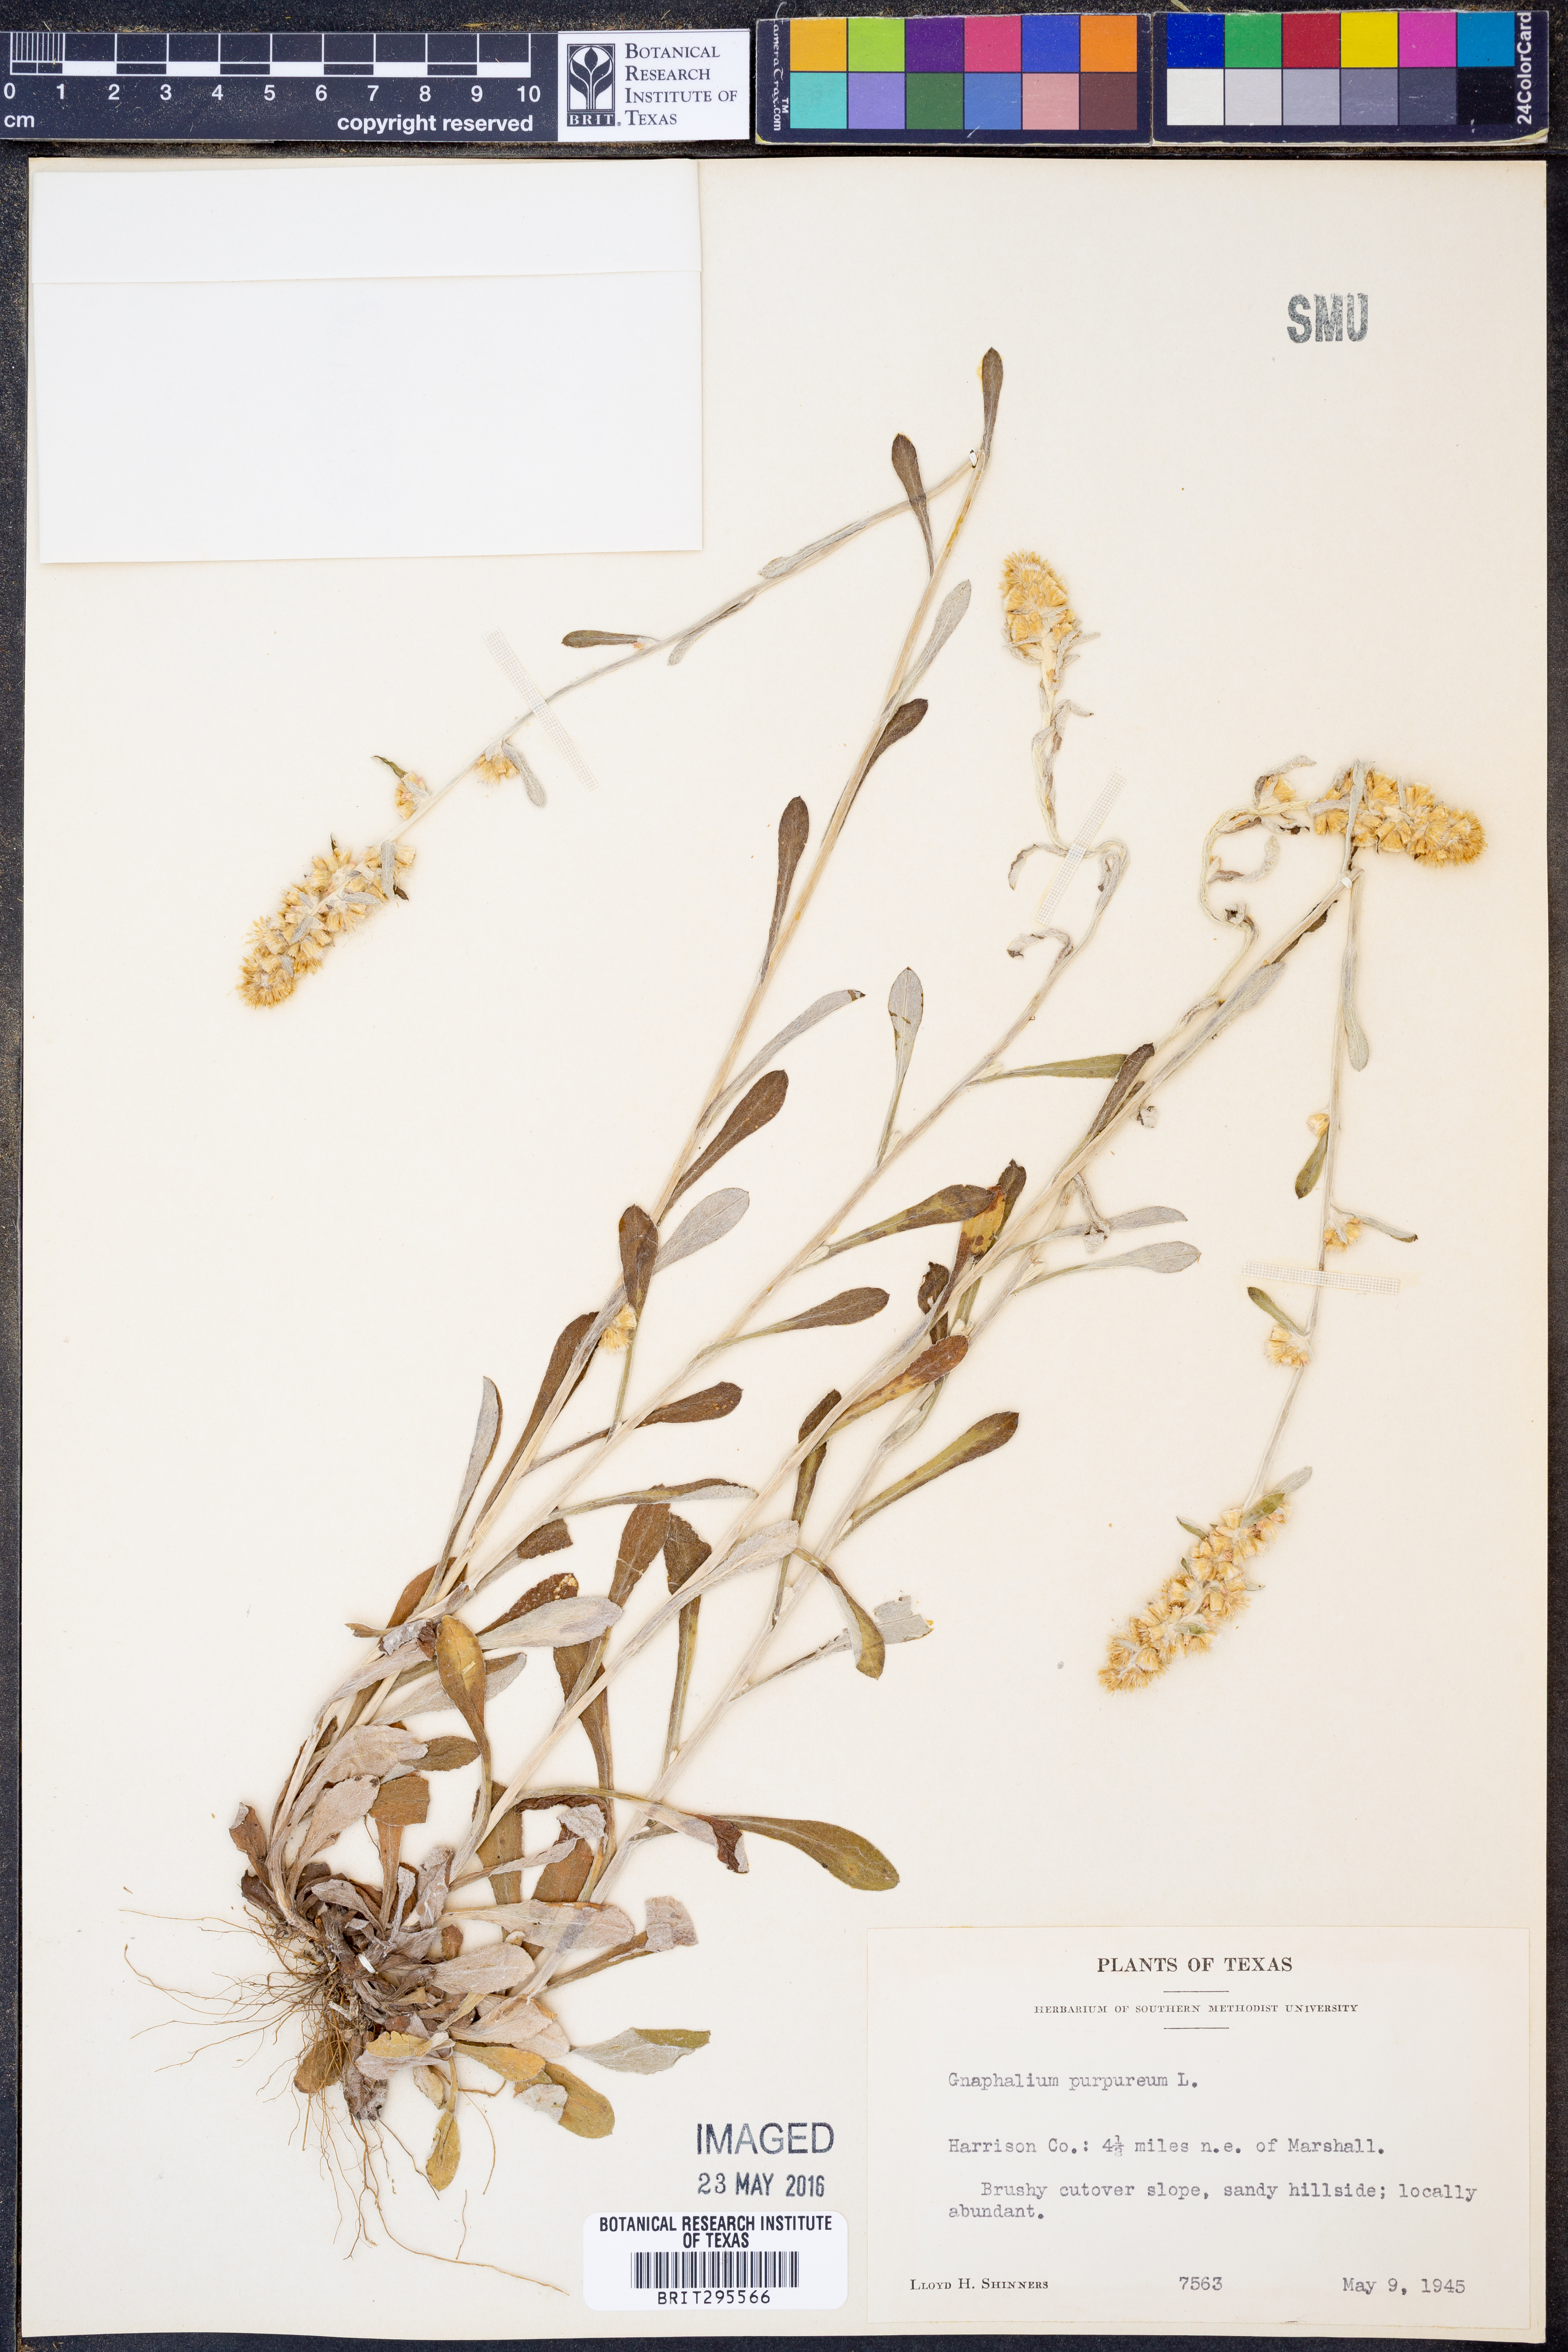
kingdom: Plantae
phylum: Tracheophyta
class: Magnoliopsida
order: Asterales
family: Asteraceae
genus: Gamochaeta
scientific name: Gamochaeta purpurea
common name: Purple cudweed
